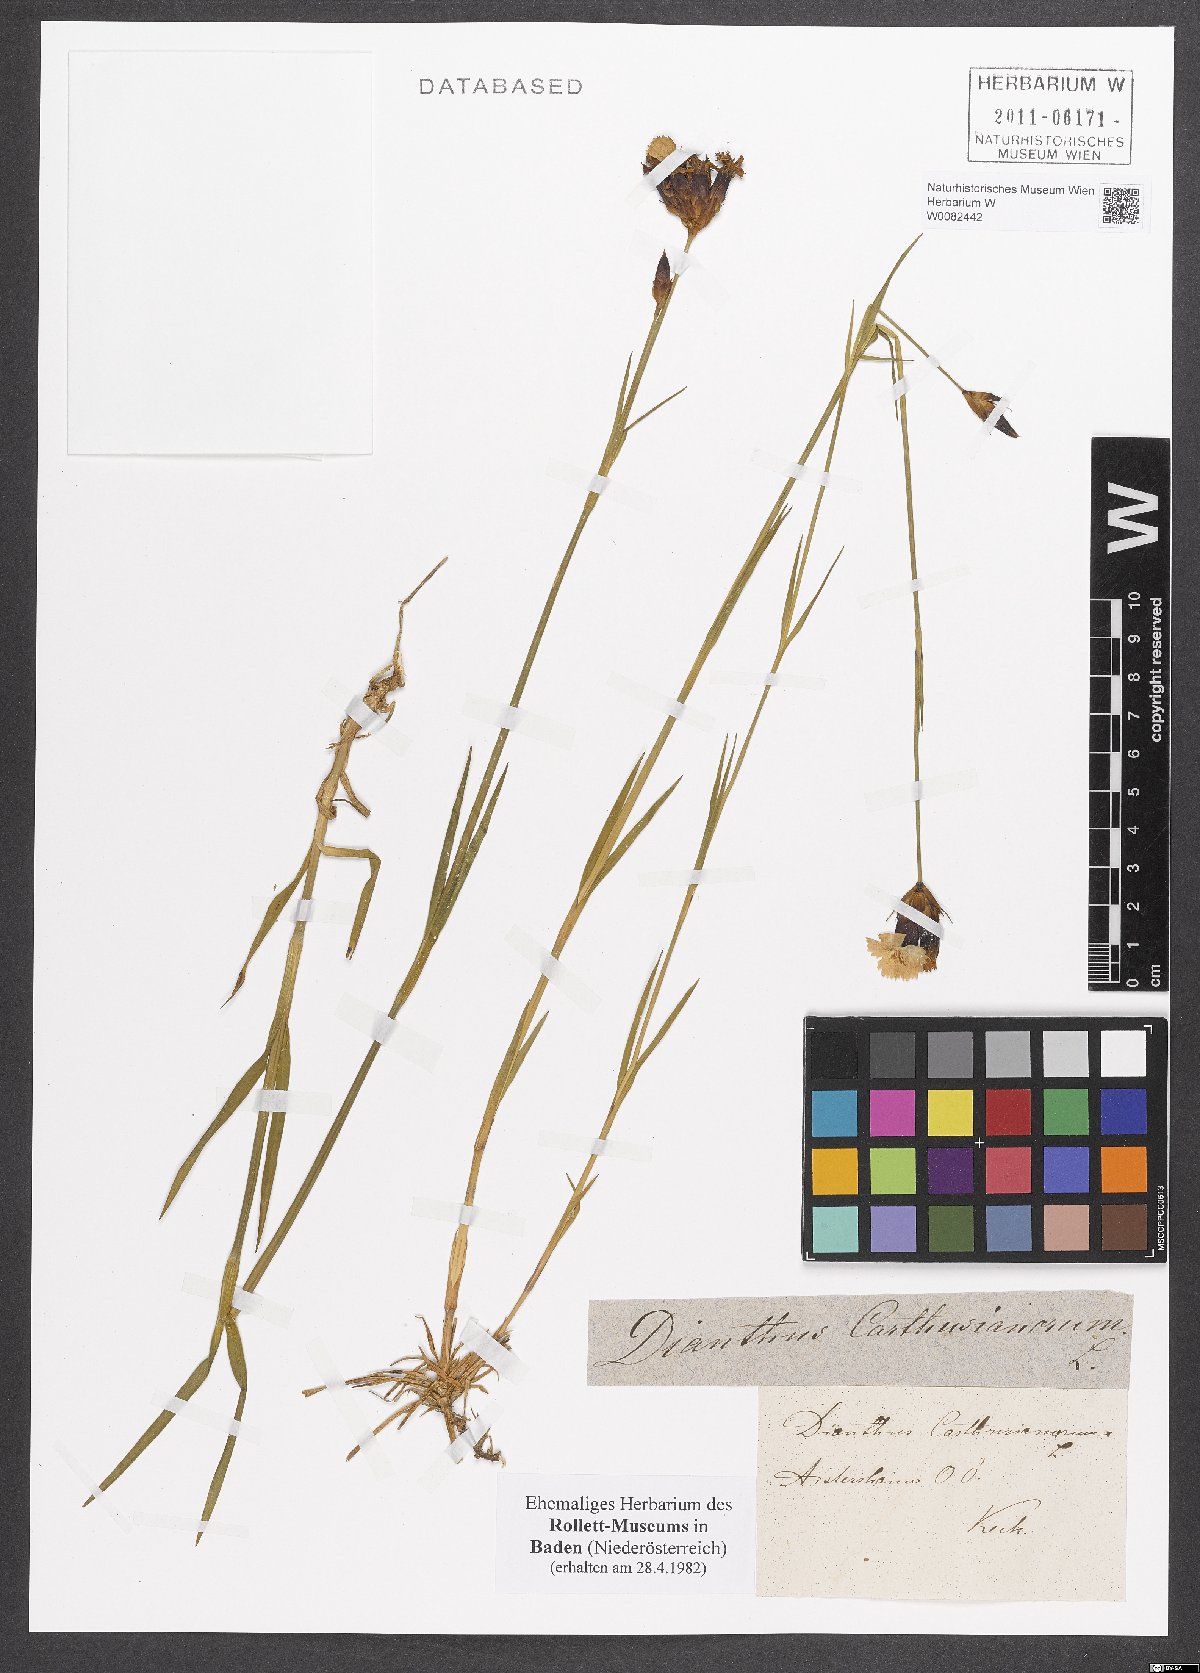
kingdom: Plantae
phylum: Tracheophyta
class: Magnoliopsida
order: Caryophyllales
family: Caryophyllaceae
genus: Dianthus
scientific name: Dianthus carthusianorum
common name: Carthusian pink
